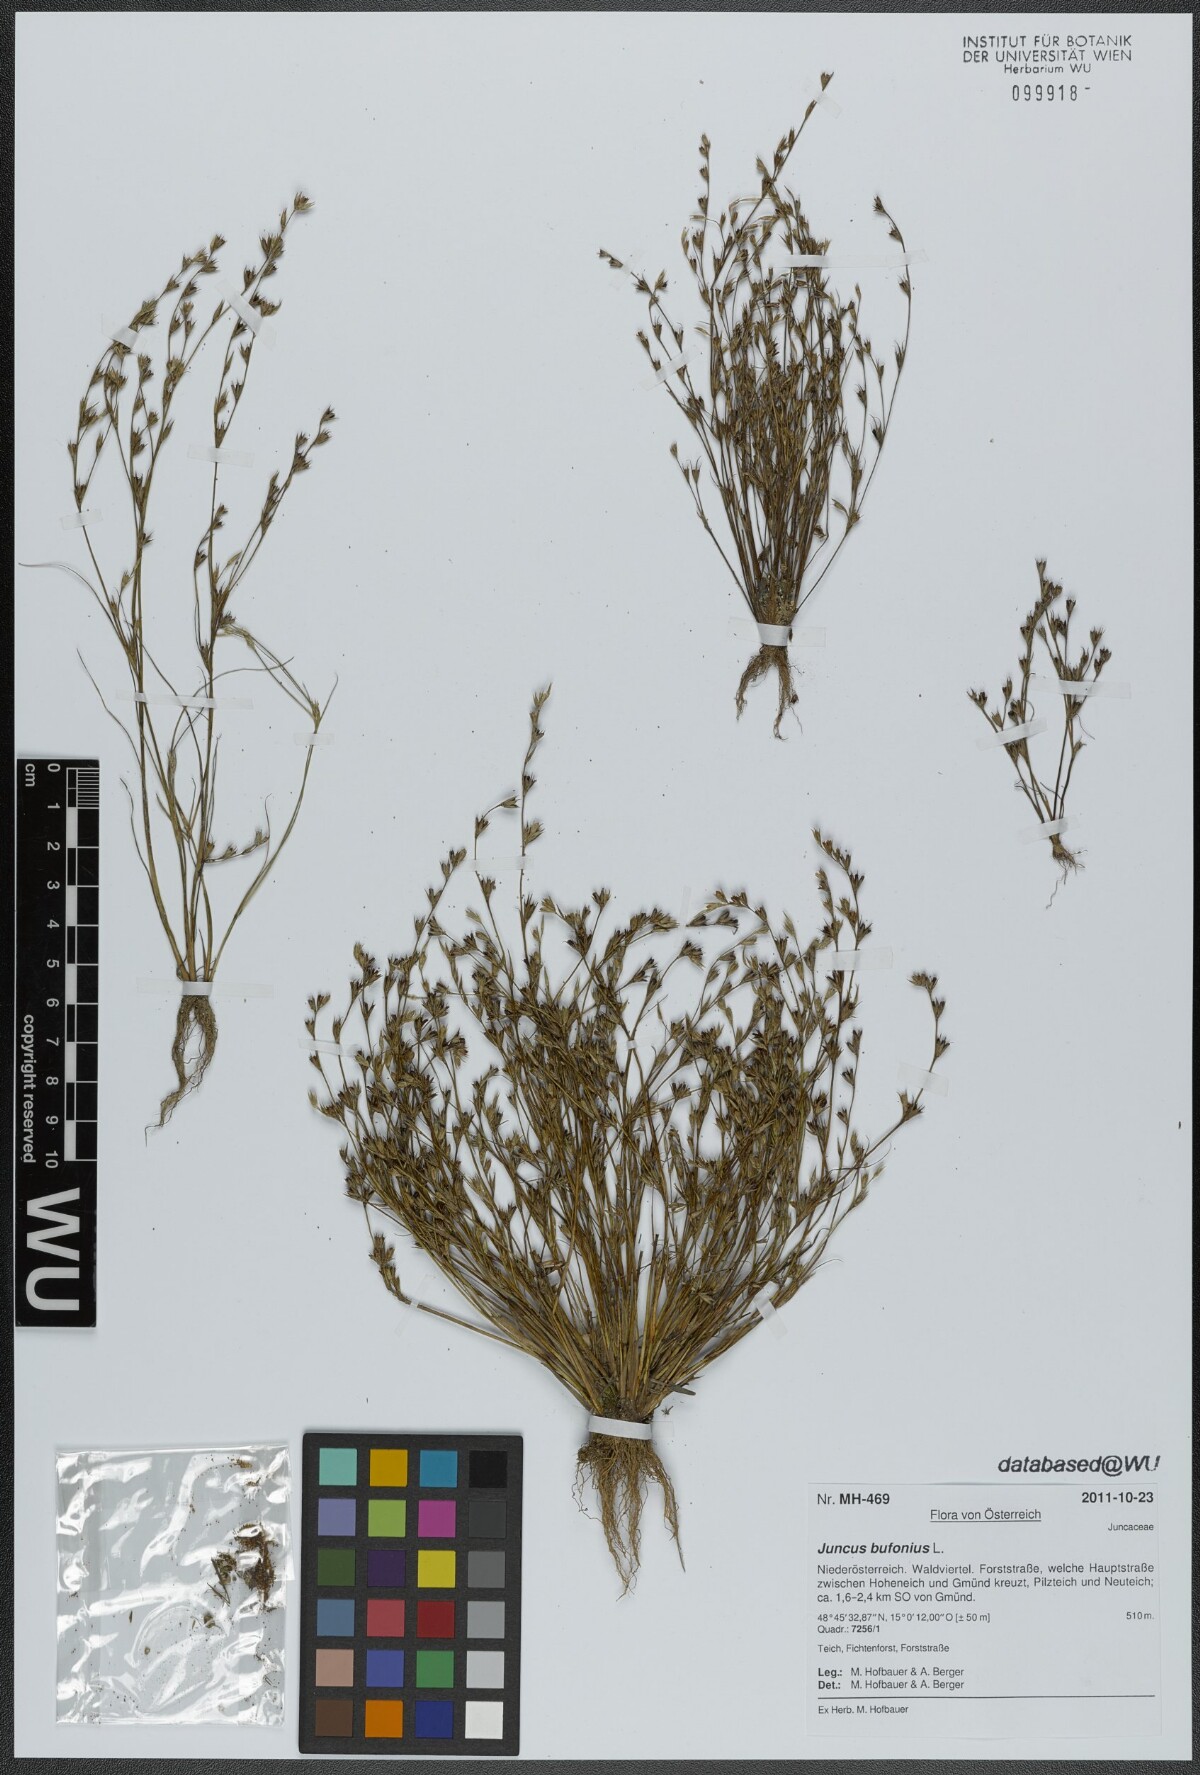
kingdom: Plantae
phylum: Tracheophyta
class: Liliopsida
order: Poales
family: Juncaceae
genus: Juncus
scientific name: Juncus bufonius
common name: Toad rush
